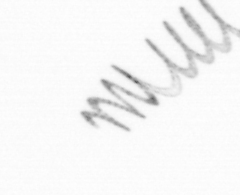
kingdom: Chromista
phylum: Ochrophyta
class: Bacillariophyceae
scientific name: Bacillariophyceae
